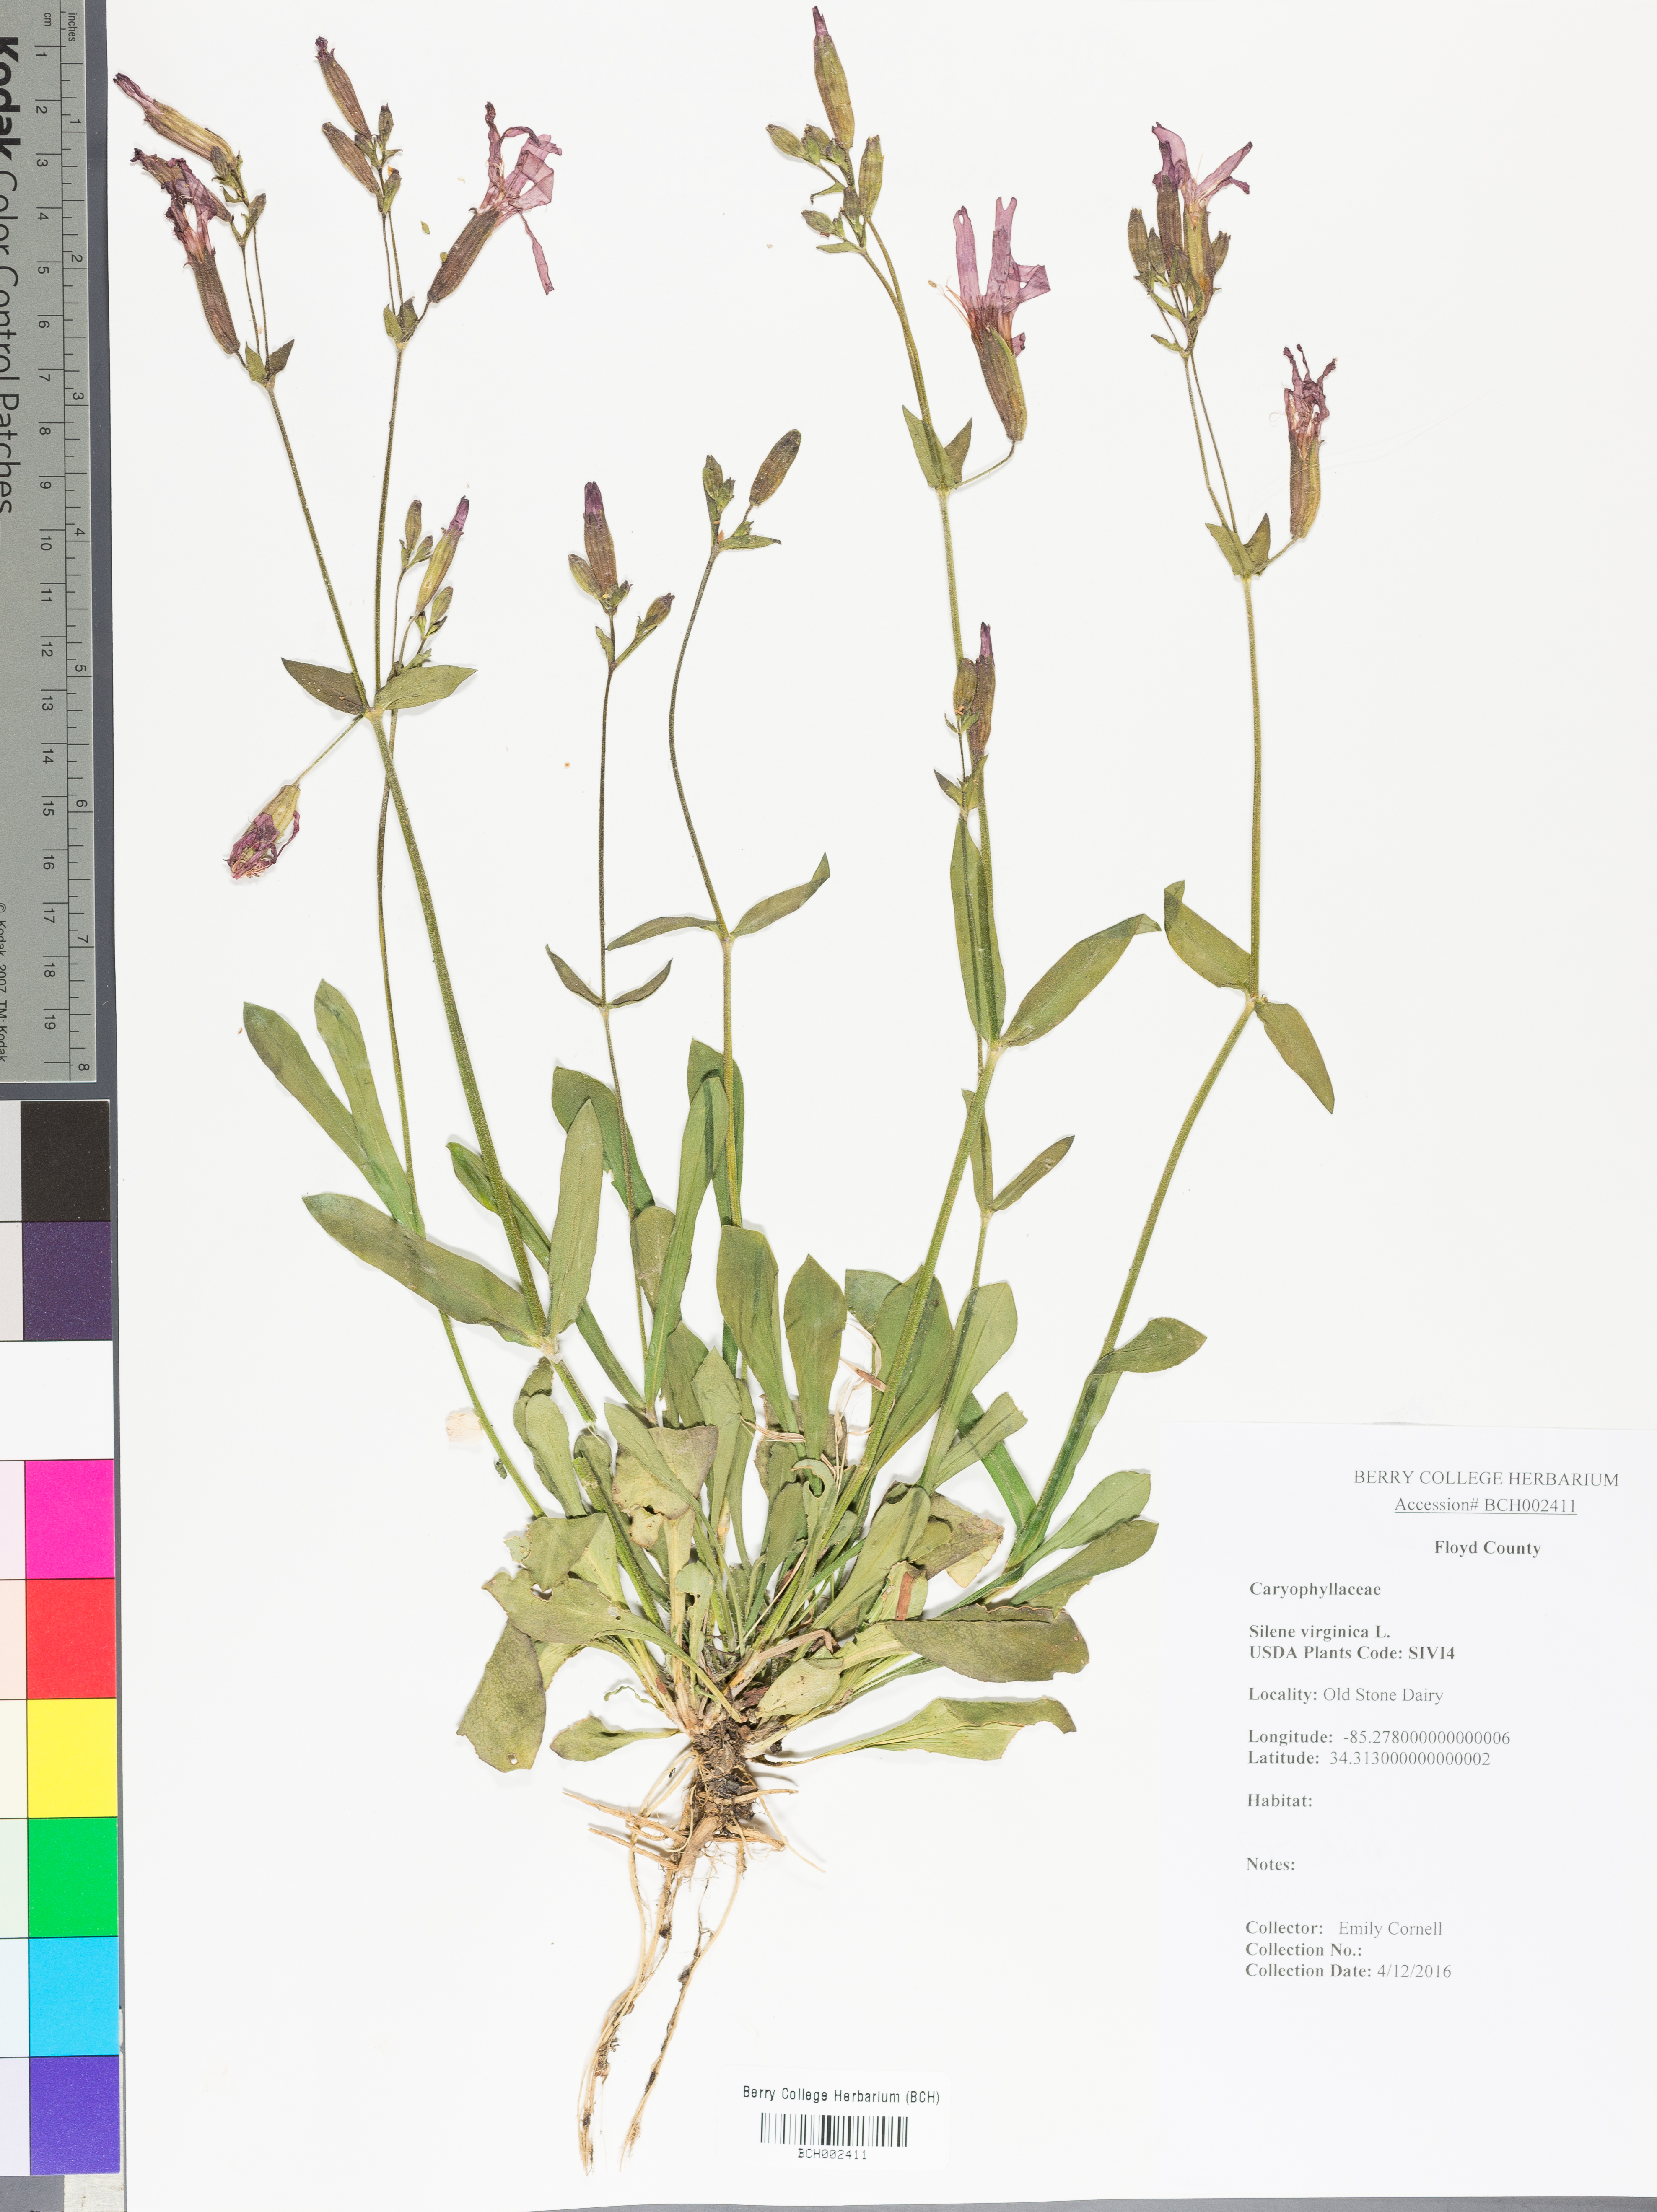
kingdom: Plantae
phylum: Tracheophyta
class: Magnoliopsida
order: Caryophyllales
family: Caryophyllaceae
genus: Silene
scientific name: Silene virginica
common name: Fire-pink
